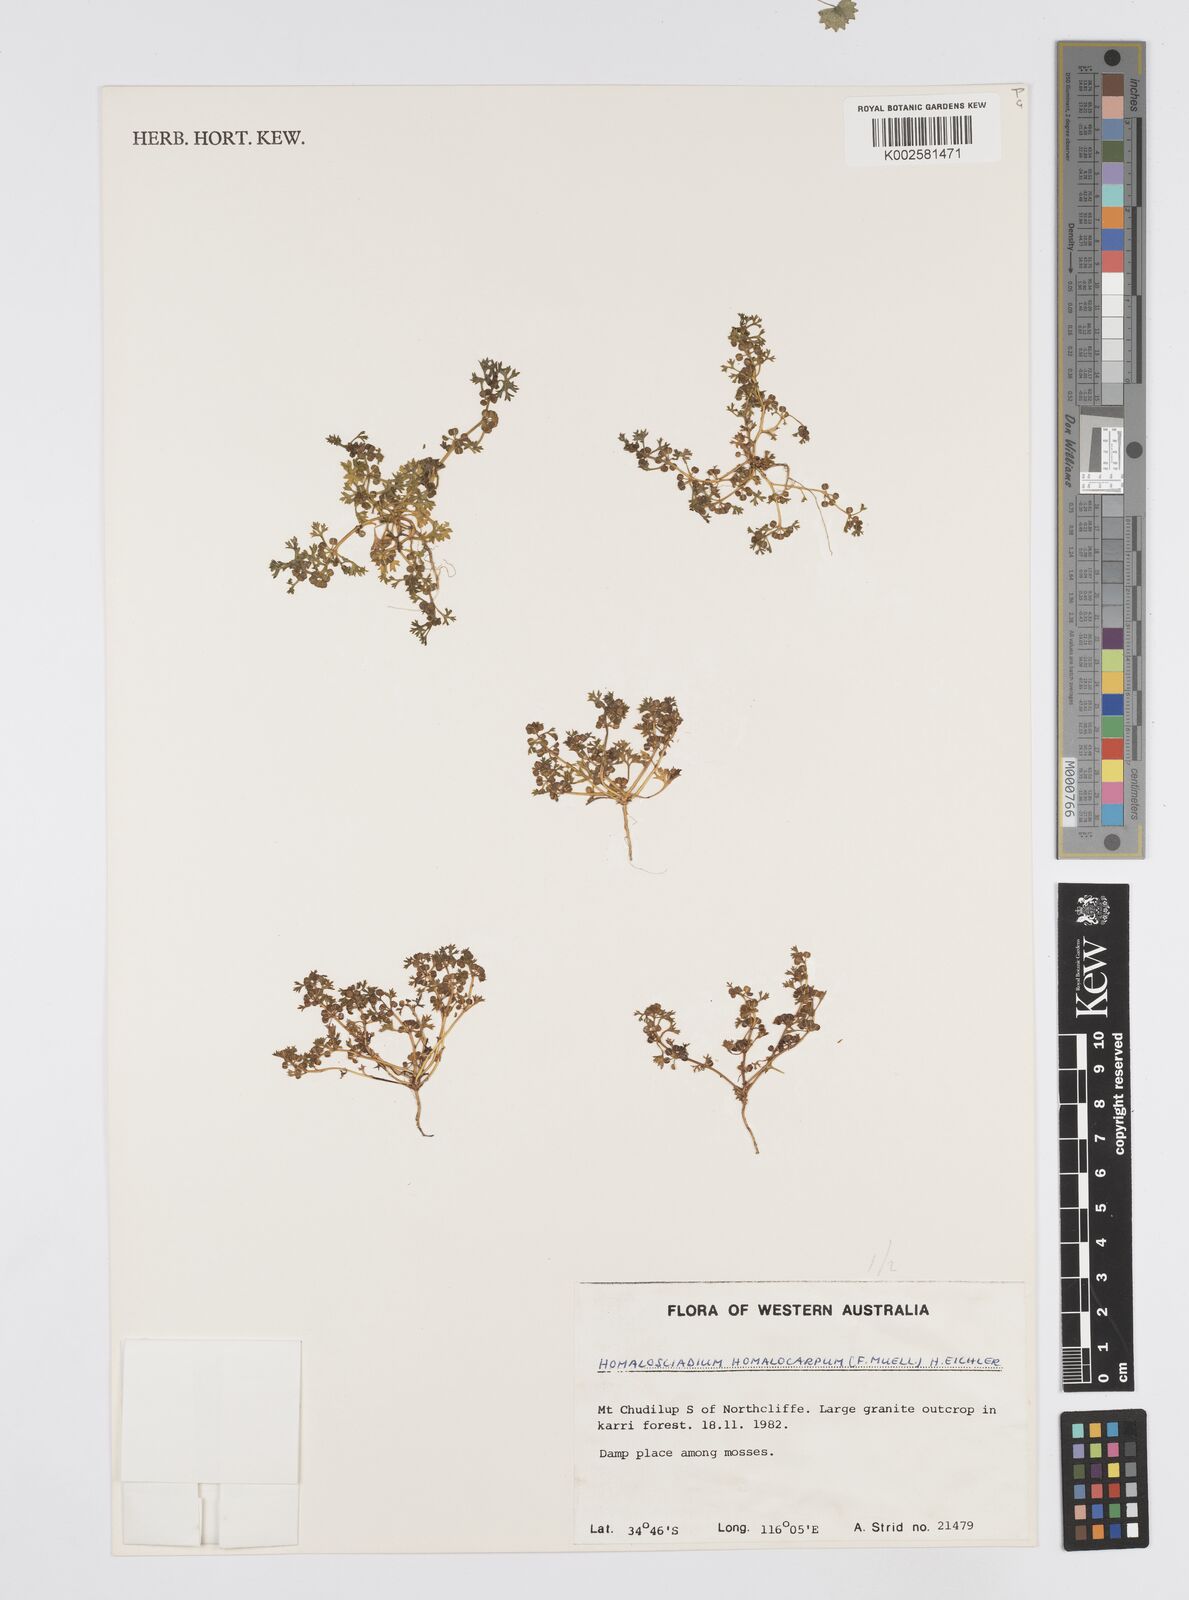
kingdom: Plantae
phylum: Tracheophyta
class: Magnoliopsida
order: Apiales
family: Apiaceae
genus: Homalosciadium
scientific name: Homalosciadium homalocarpum
